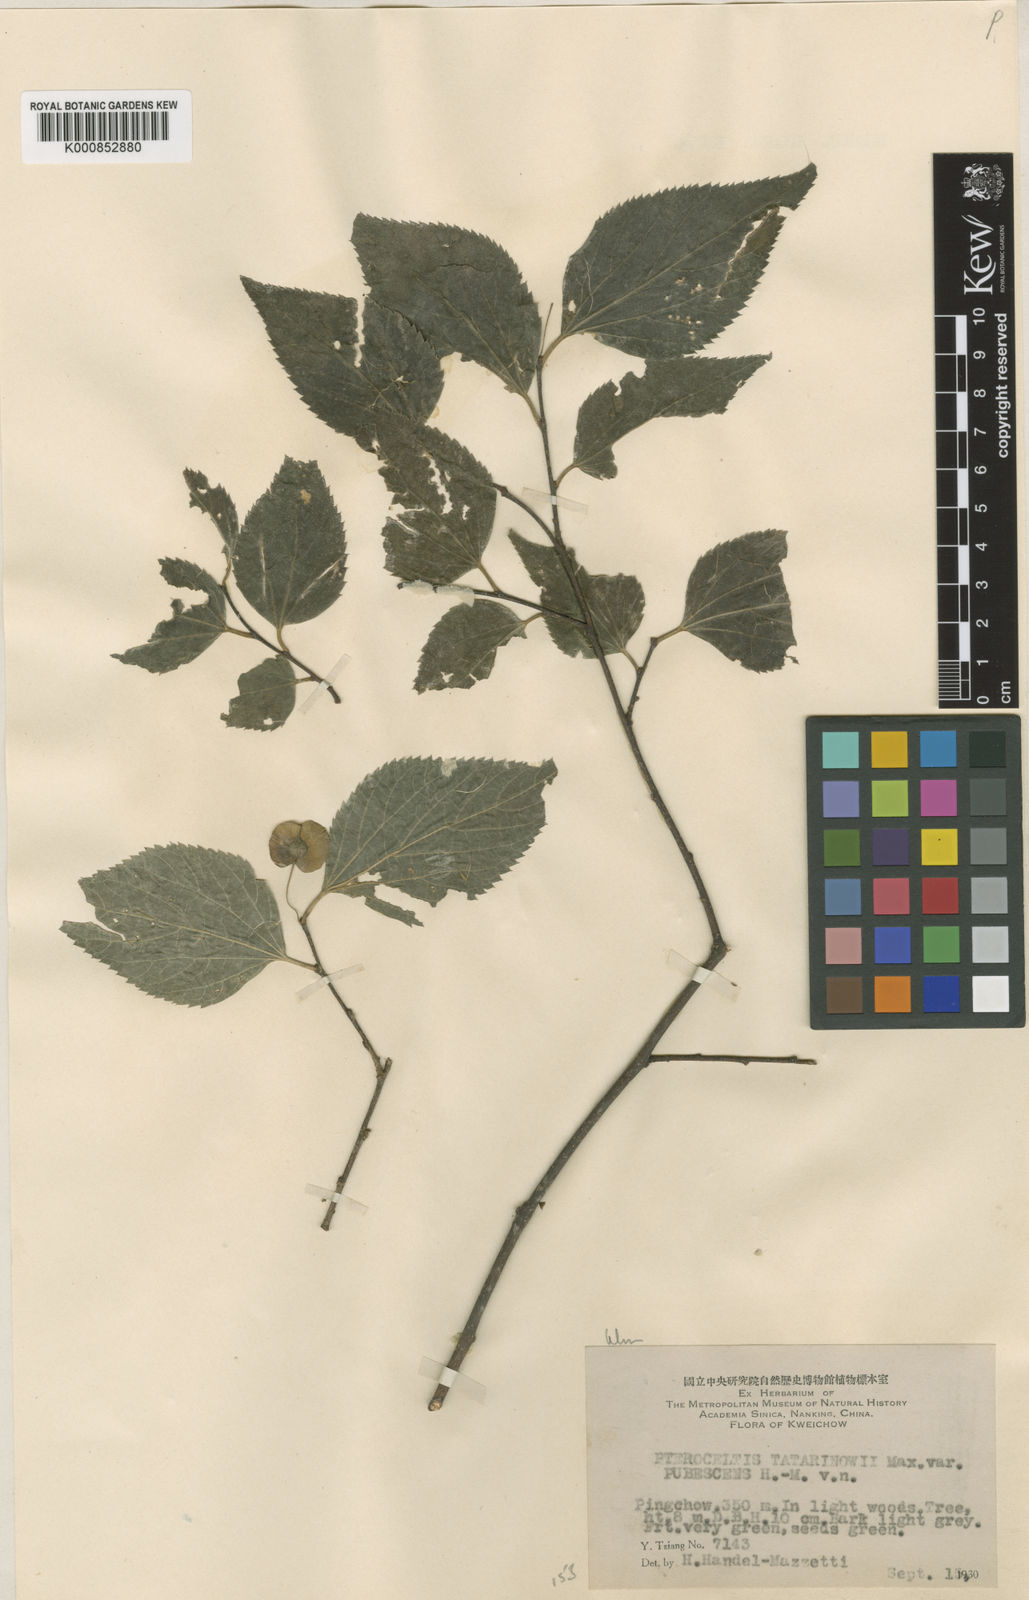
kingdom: Plantae
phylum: Tracheophyta
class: Magnoliopsida
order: Rosales
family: Cannabaceae
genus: Pteroceltis
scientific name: Pteroceltis tatarinowii
